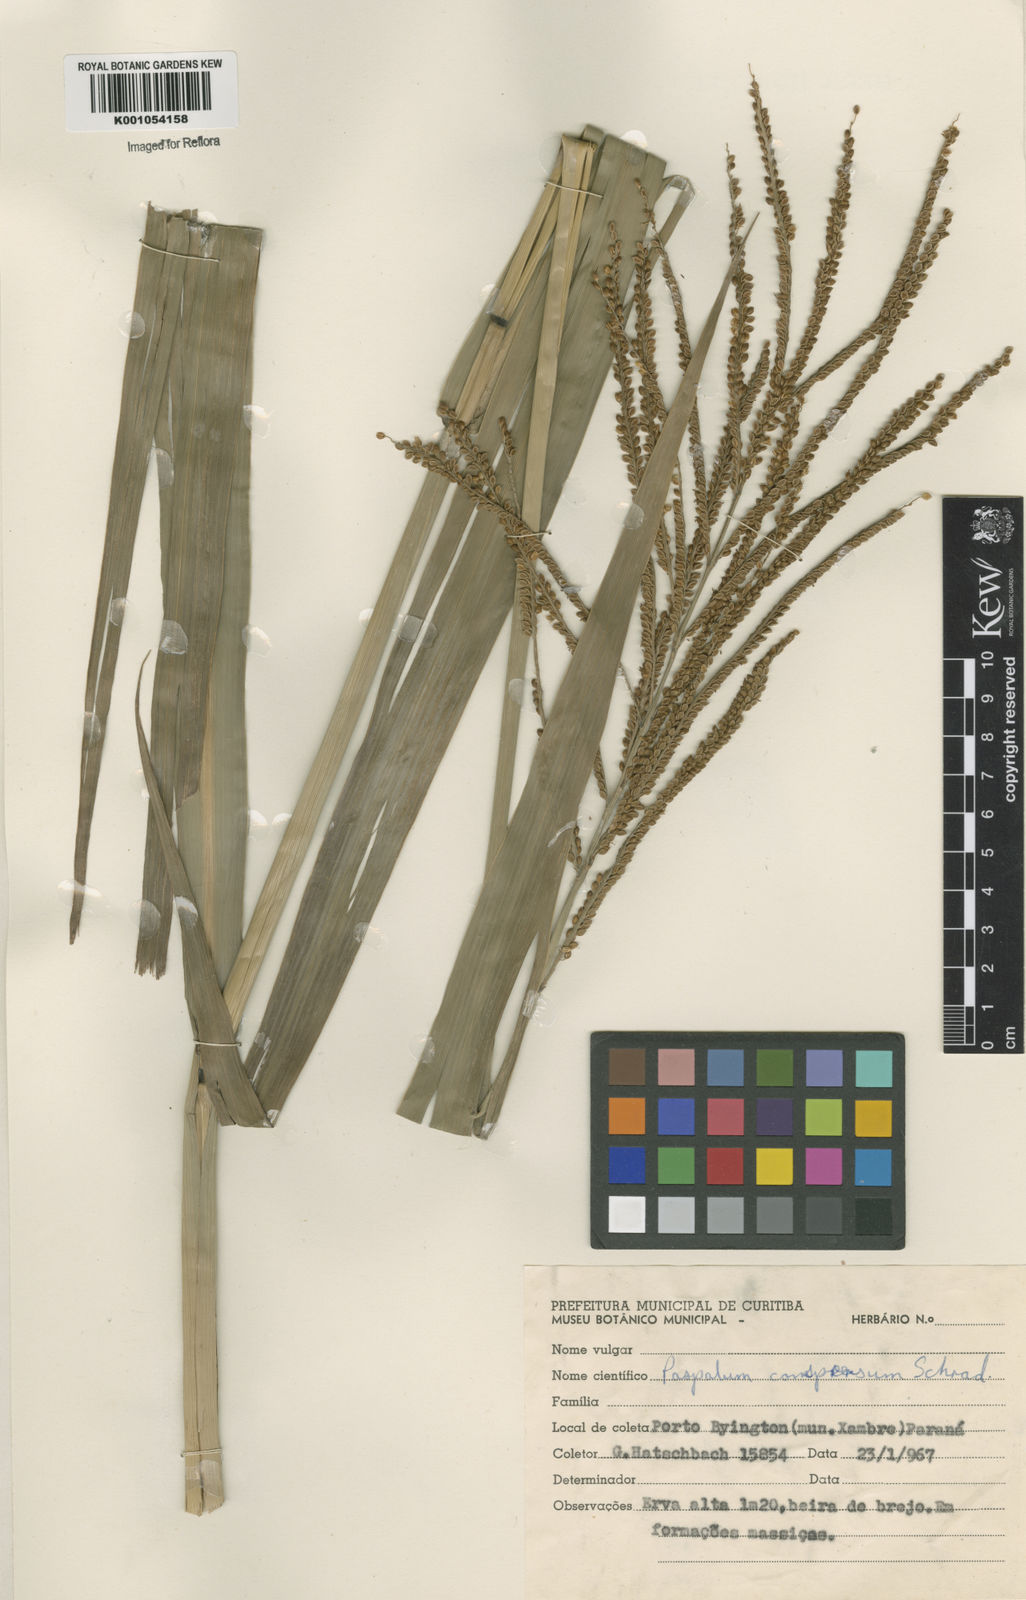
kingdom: Plantae
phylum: Tracheophyta
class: Liliopsida
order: Poales
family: Poaceae
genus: Paspalum
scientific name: Paspalum conspersum
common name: Scattered paspalum
